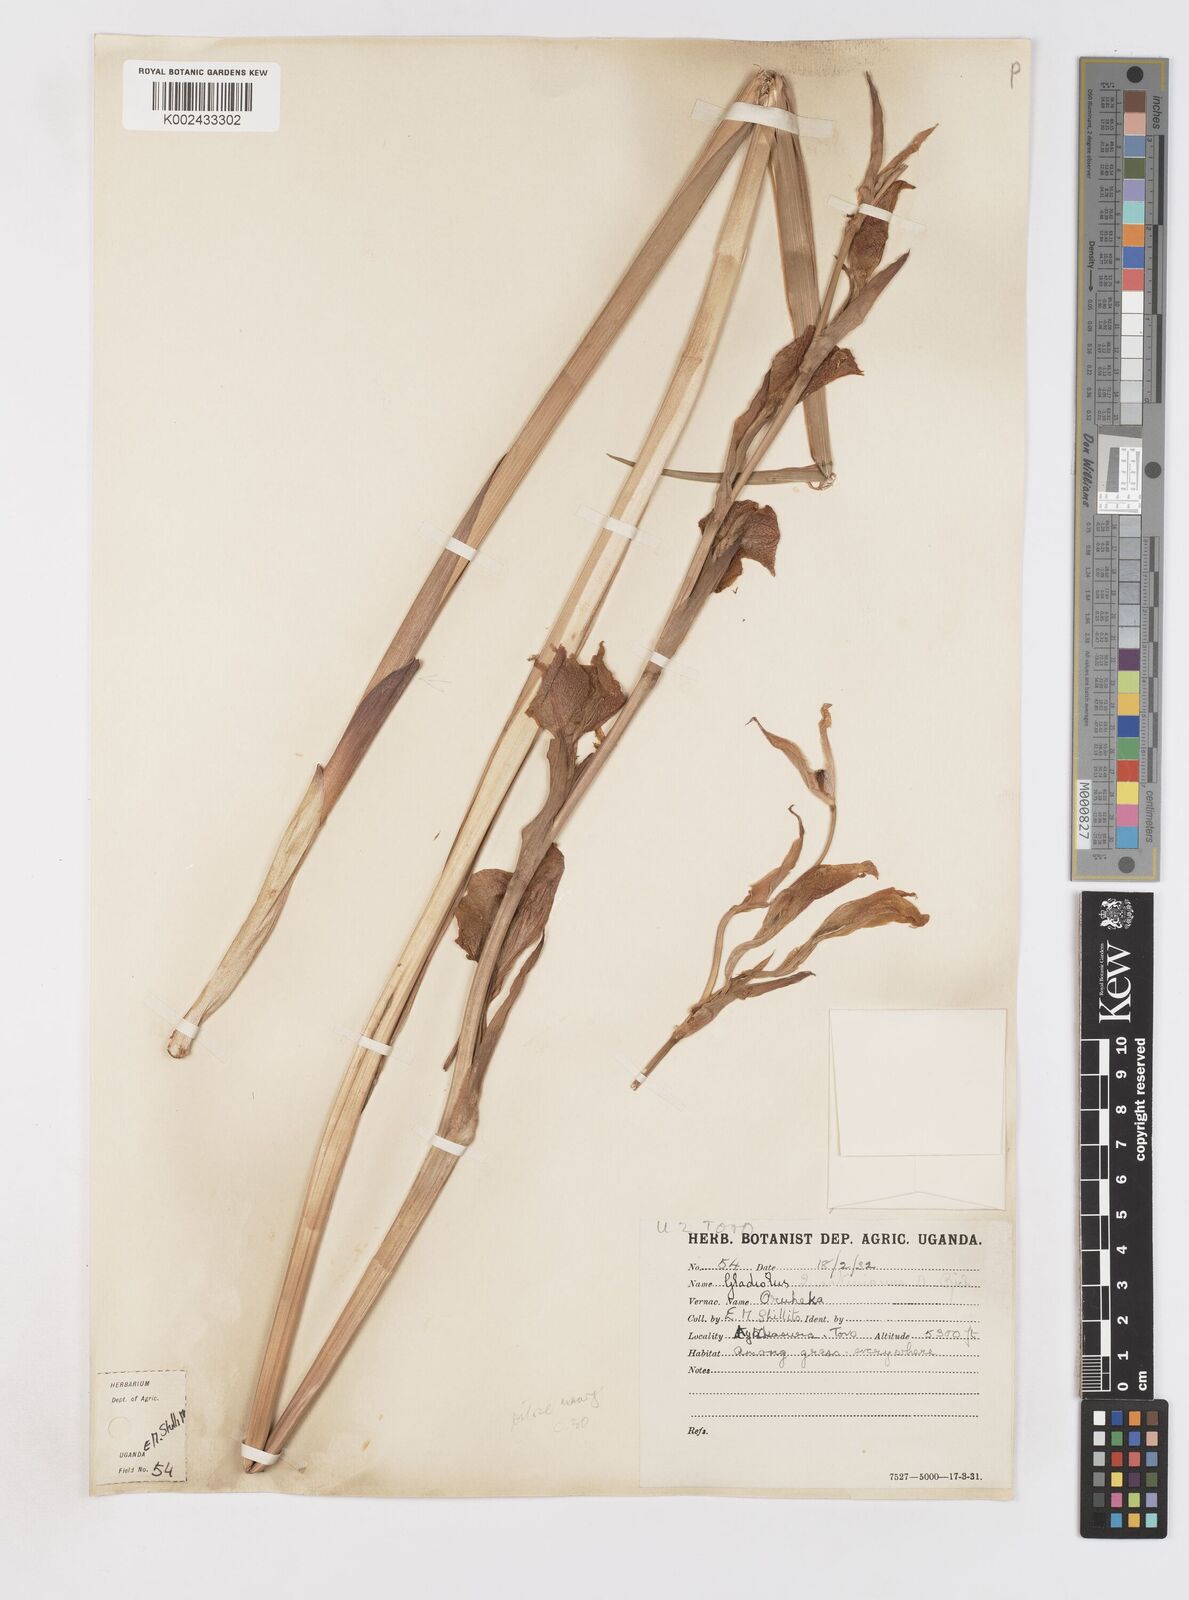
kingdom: Plantae
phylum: Tracheophyta
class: Liliopsida
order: Asparagales
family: Iridaceae
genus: Gladiolus
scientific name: Gladiolus dalenii
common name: Cornflag
